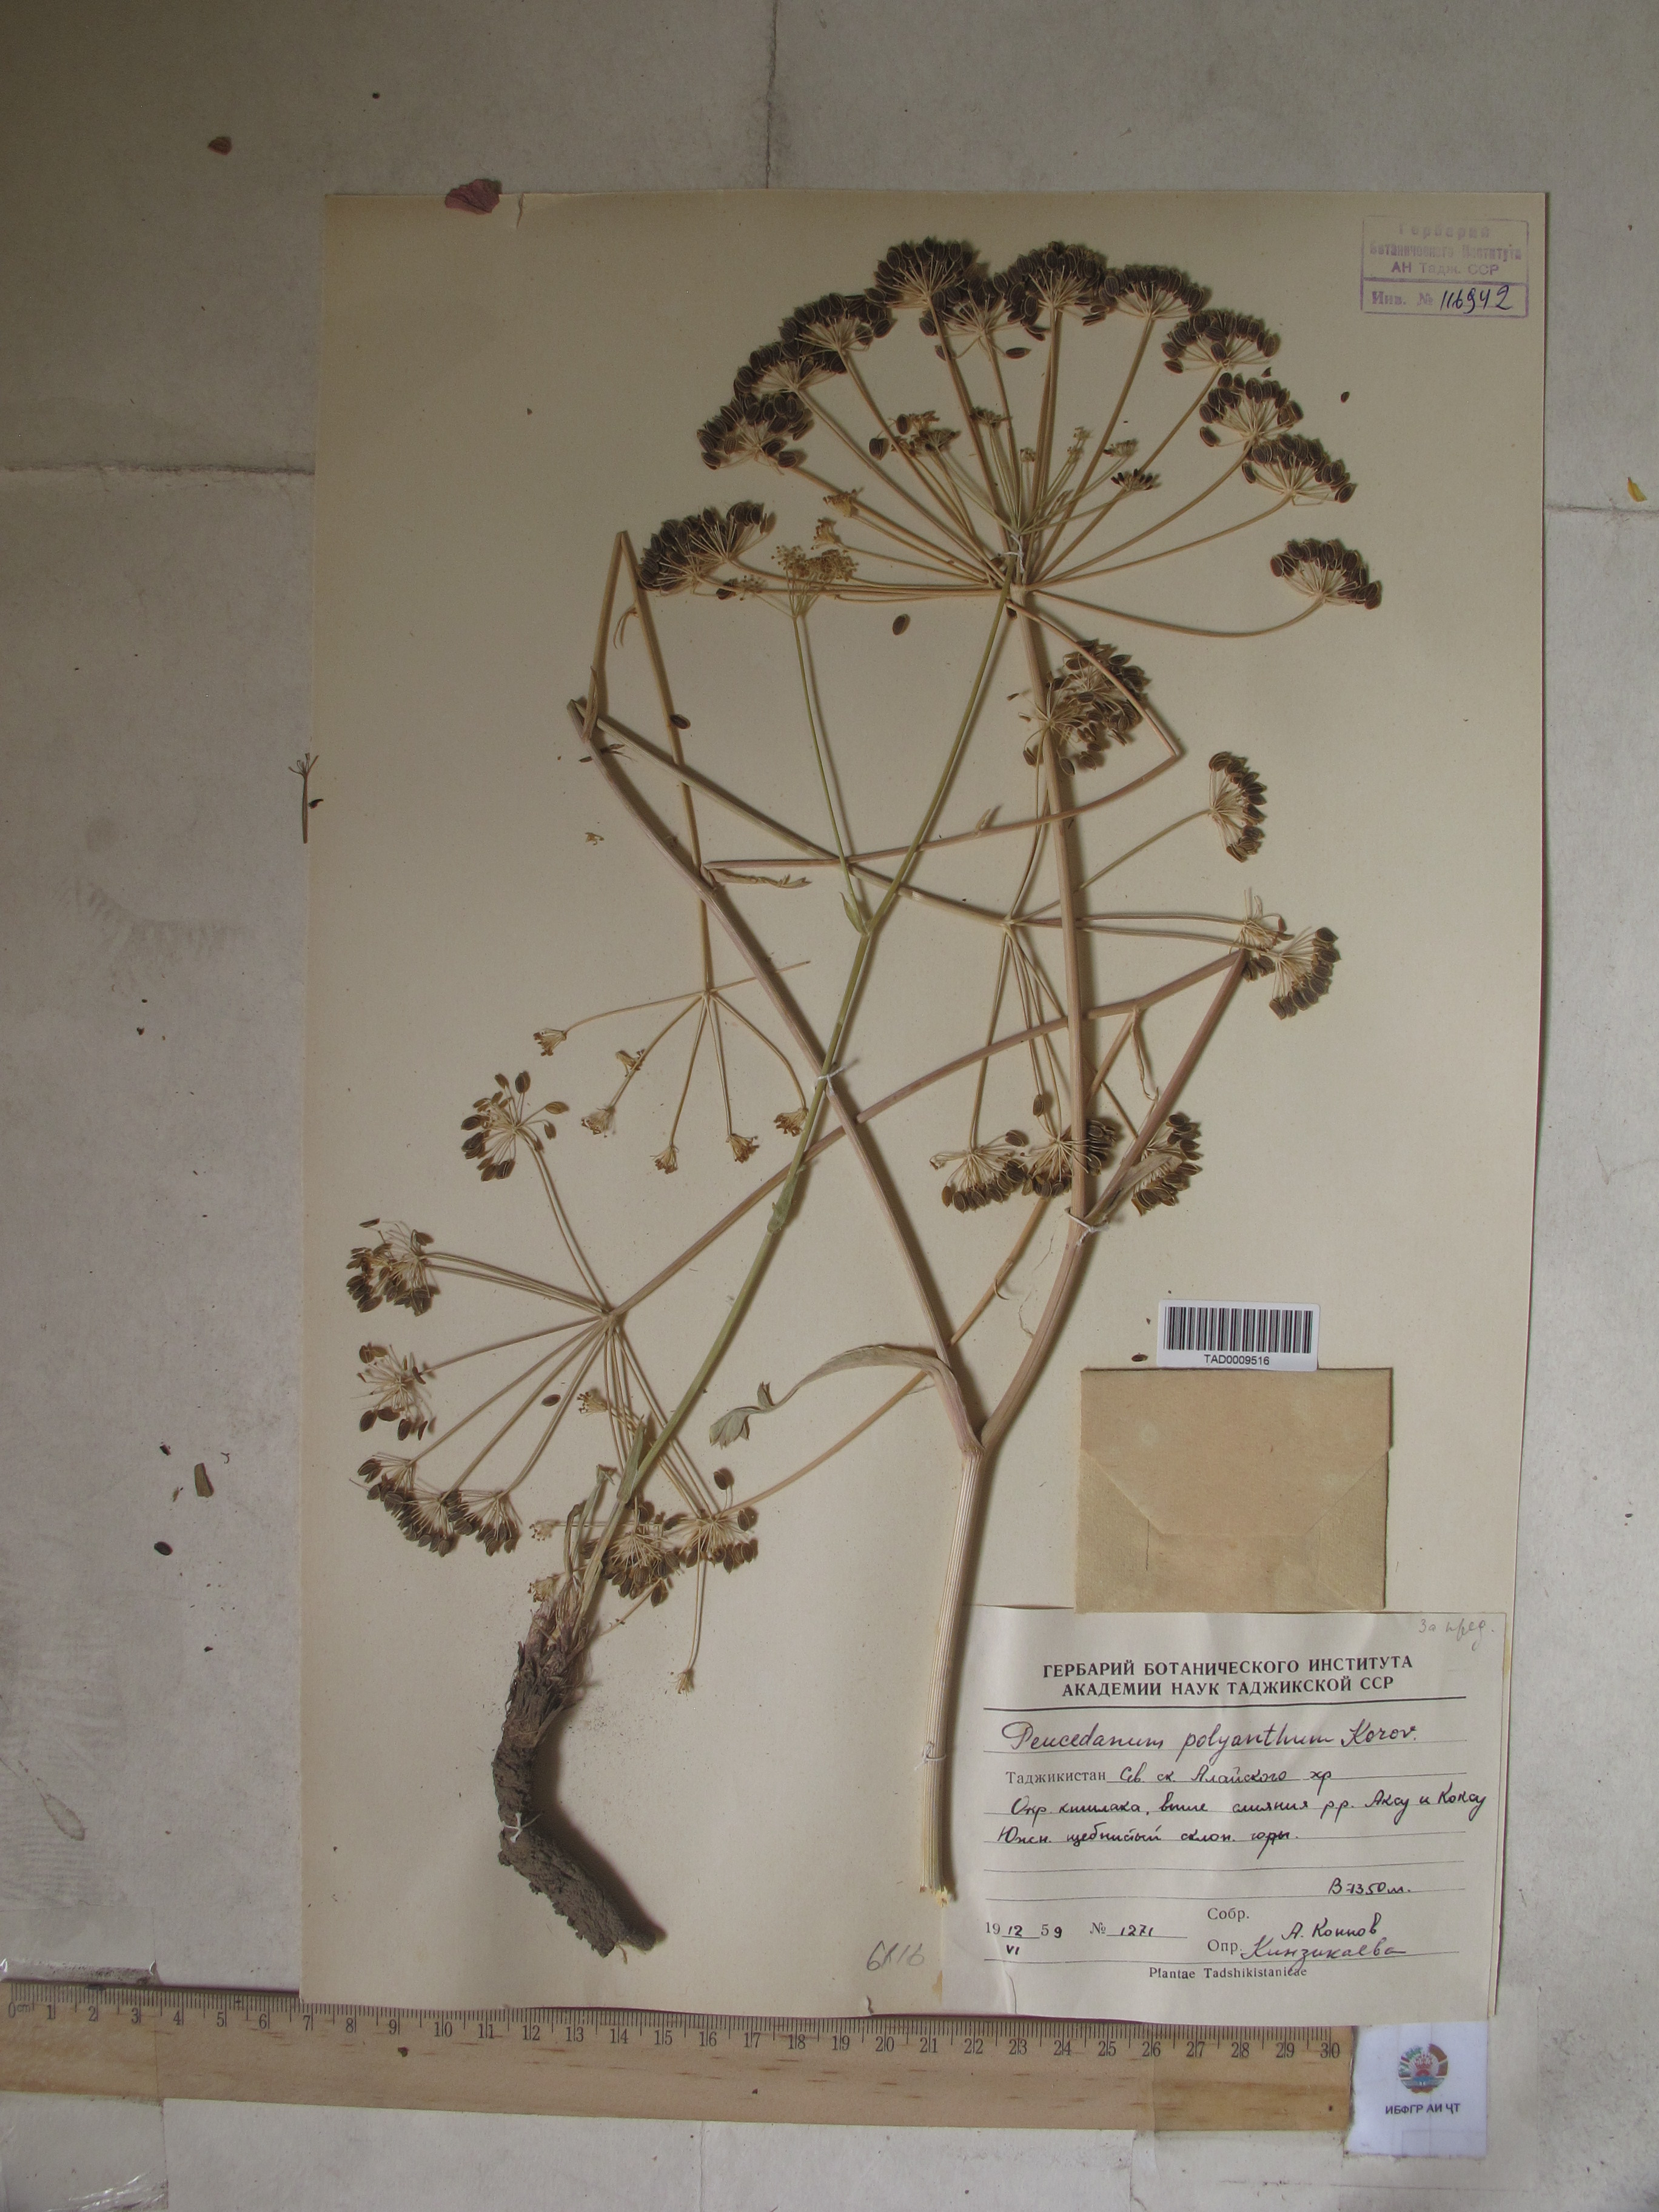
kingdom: Plantae
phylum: Tracheophyta
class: Magnoliopsida
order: Apiales
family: Apiaceae
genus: Fergania
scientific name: Fergania polyantha
